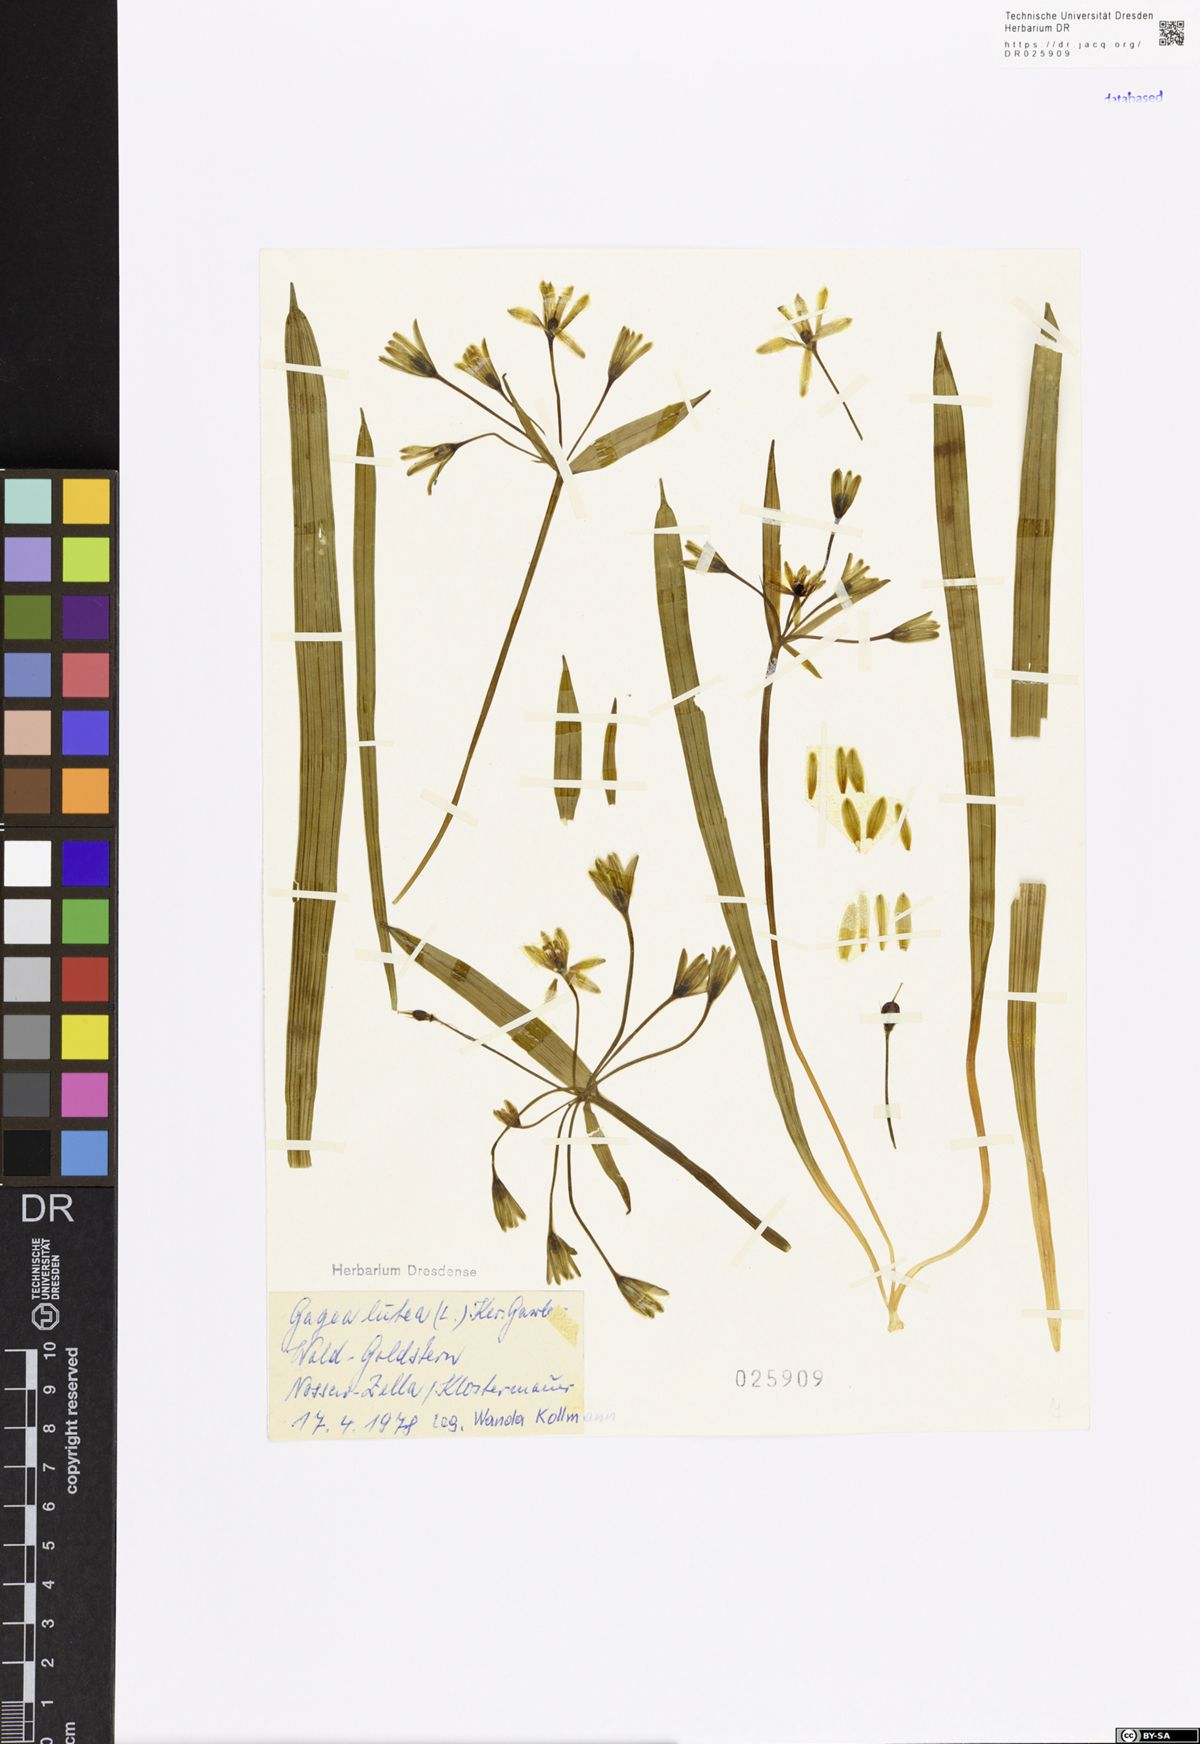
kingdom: Plantae
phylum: Tracheophyta
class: Liliopsida
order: Liliales
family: Liliaceae
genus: Gagea
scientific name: Gagea lutea
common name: Yellow star-of-bethlehem
